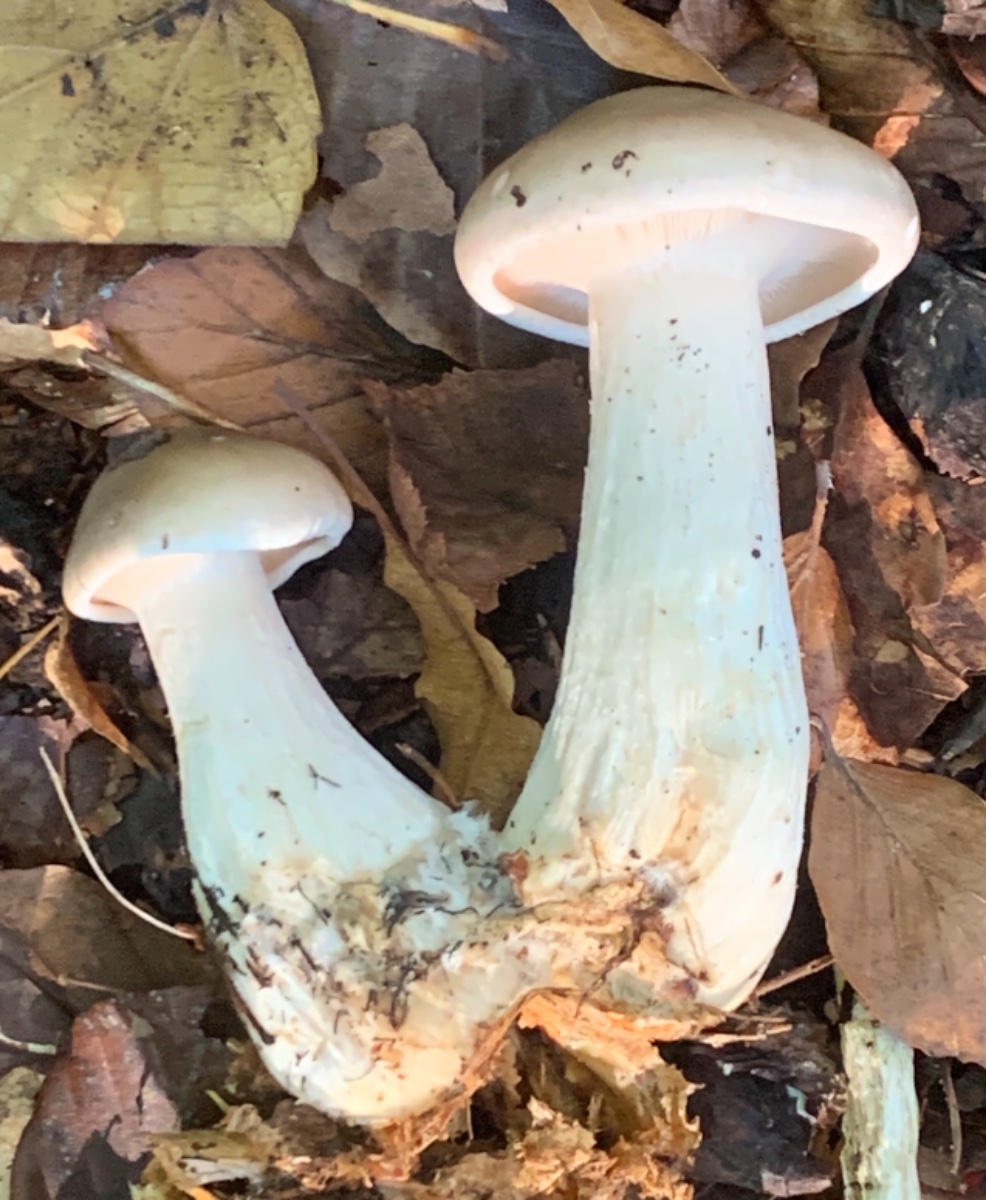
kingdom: Fungi
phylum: Basidiomycota
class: Agaricomycetes
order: Agaricales
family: Tricholomataceae
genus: Clitocybe
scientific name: Clitocybe nebularis
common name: tåge-tragthat
